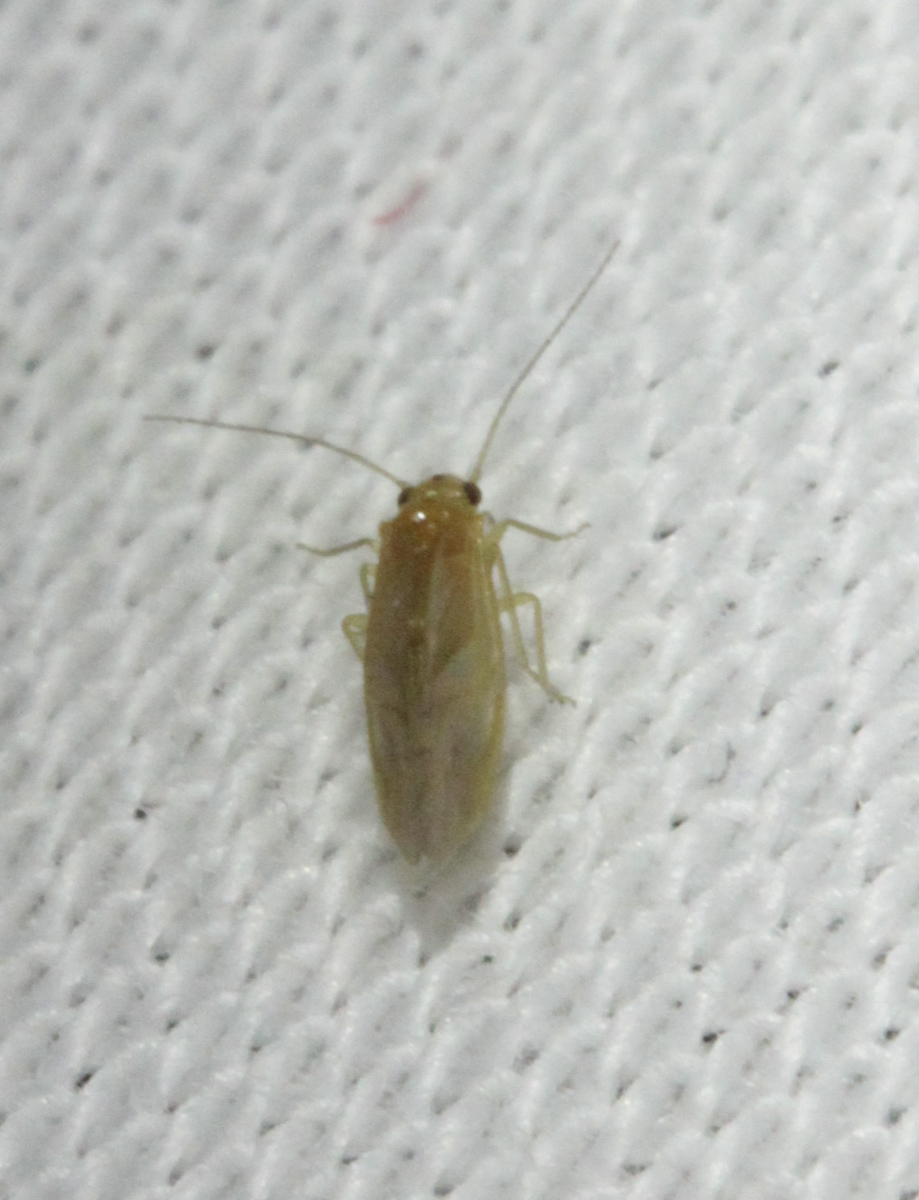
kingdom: Animalia
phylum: Arthropoda
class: Insecta
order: Psocodea
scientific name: Psocodea
